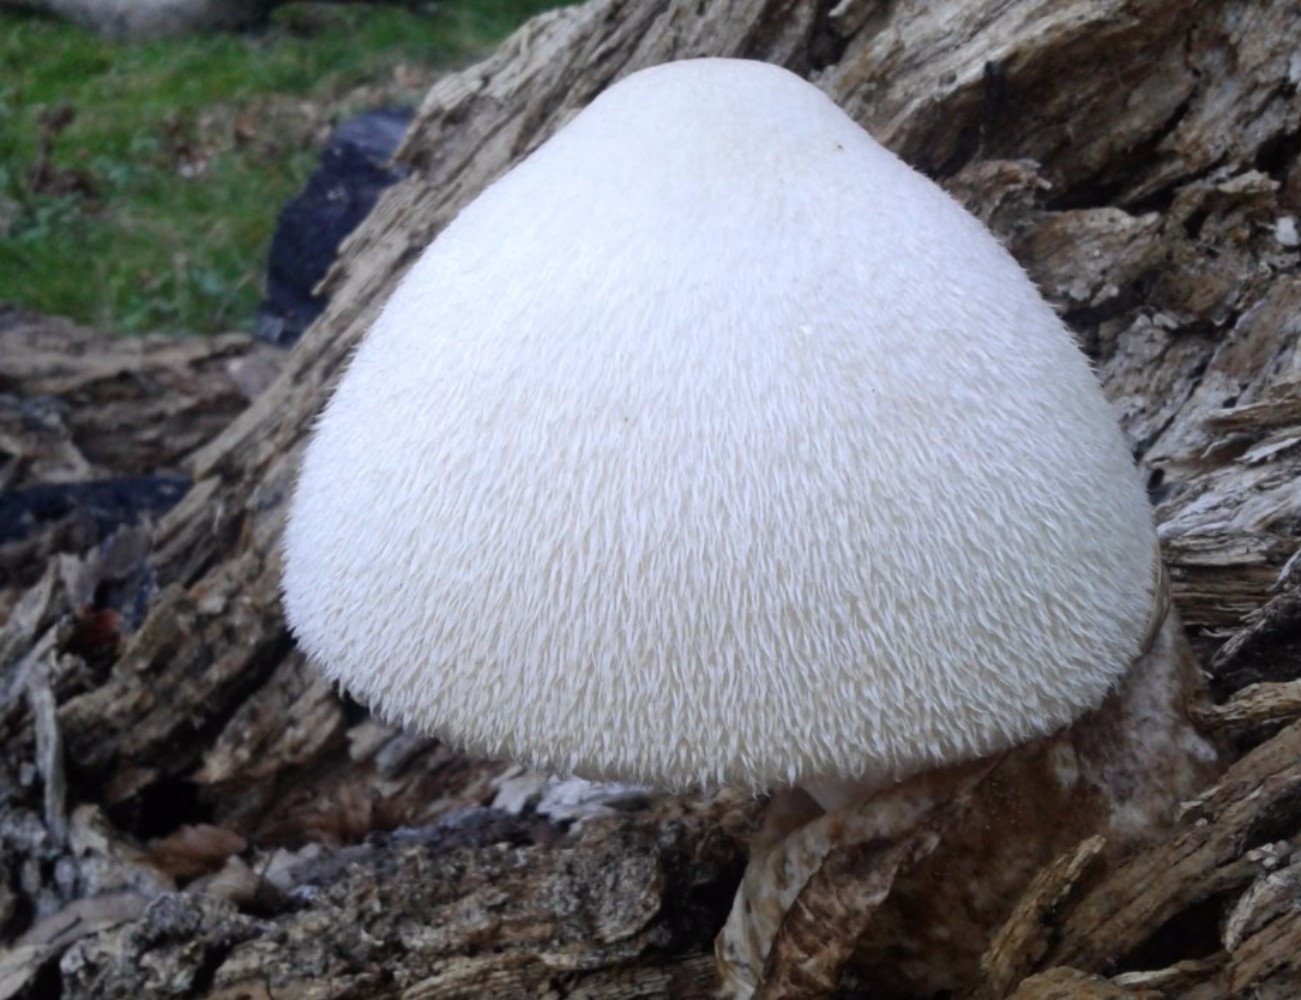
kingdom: Fungi
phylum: Basidiomycota
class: Agaricomycetes
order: Agaricales
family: Pluteaceae
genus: Volvariella
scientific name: Volvariella bombycina
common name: silkehåret posesvamp
